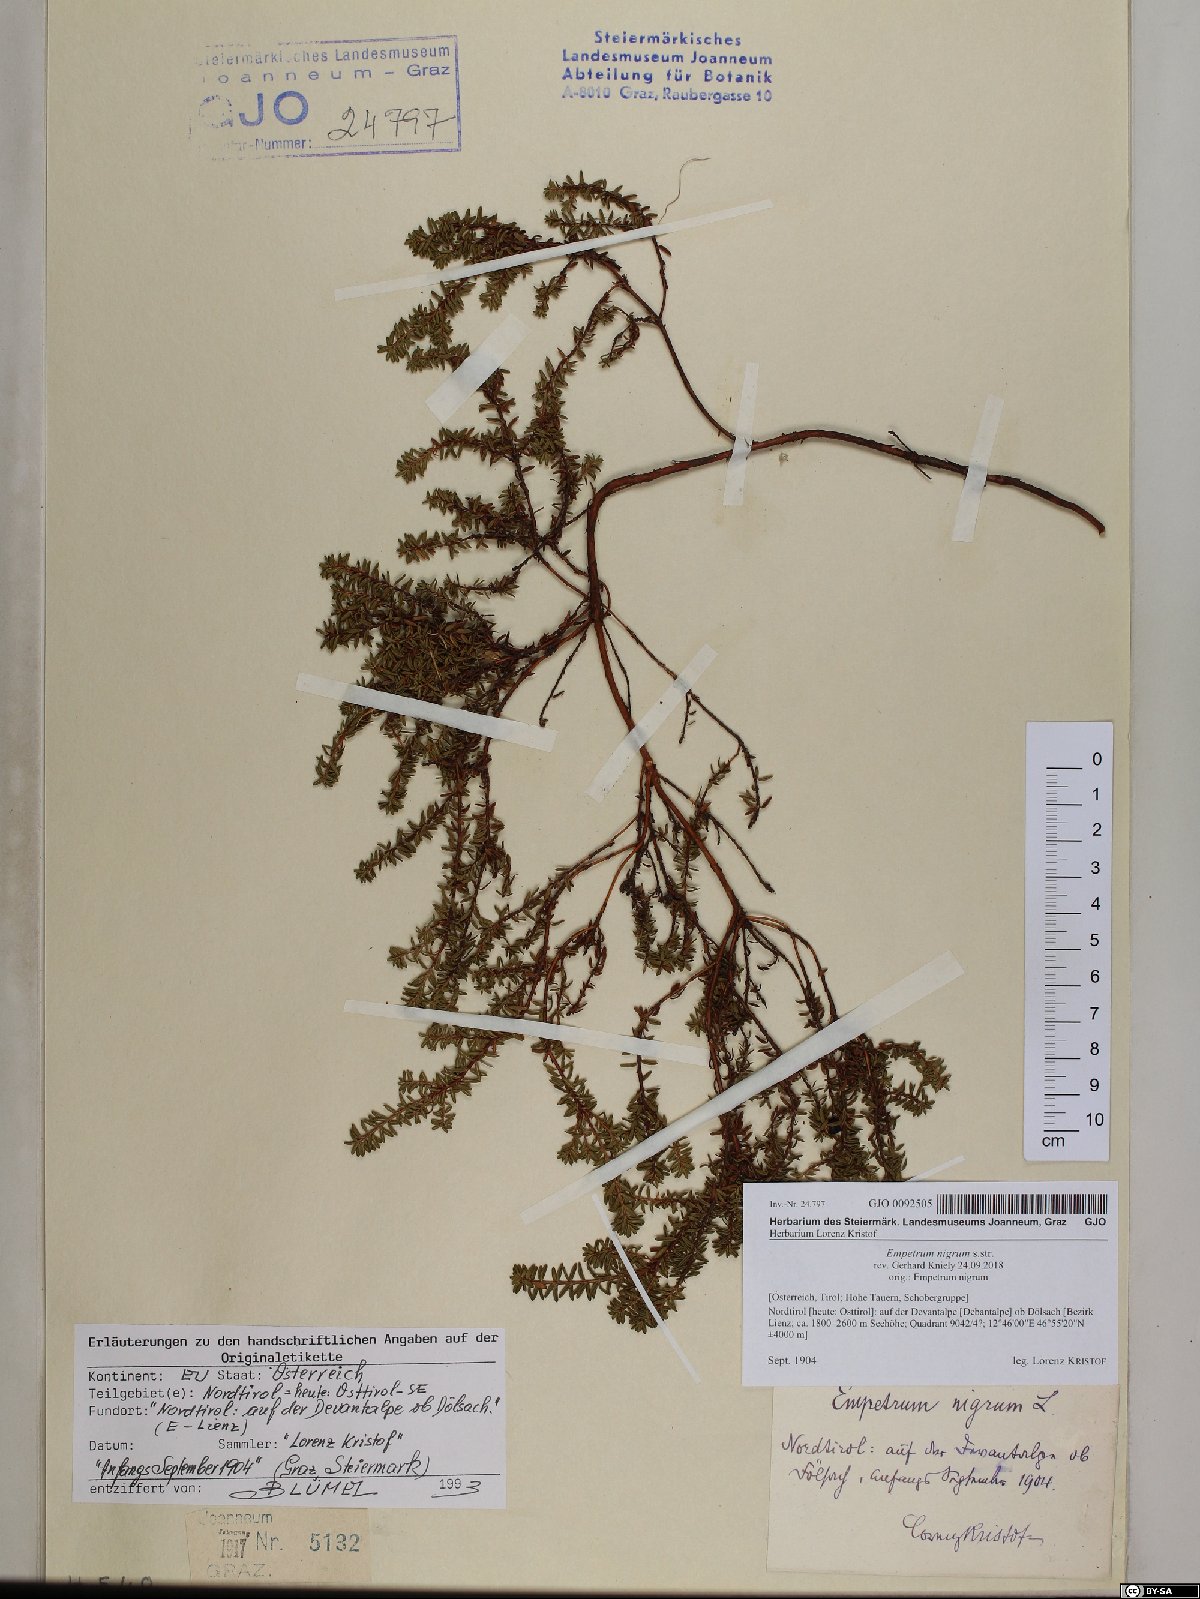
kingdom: Plantae
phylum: Tracheophyta
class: Magnoliopsida
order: Ericales
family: Ericaceae
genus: Empetrum
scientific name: Empetrum nigrum
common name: Black crowberry
